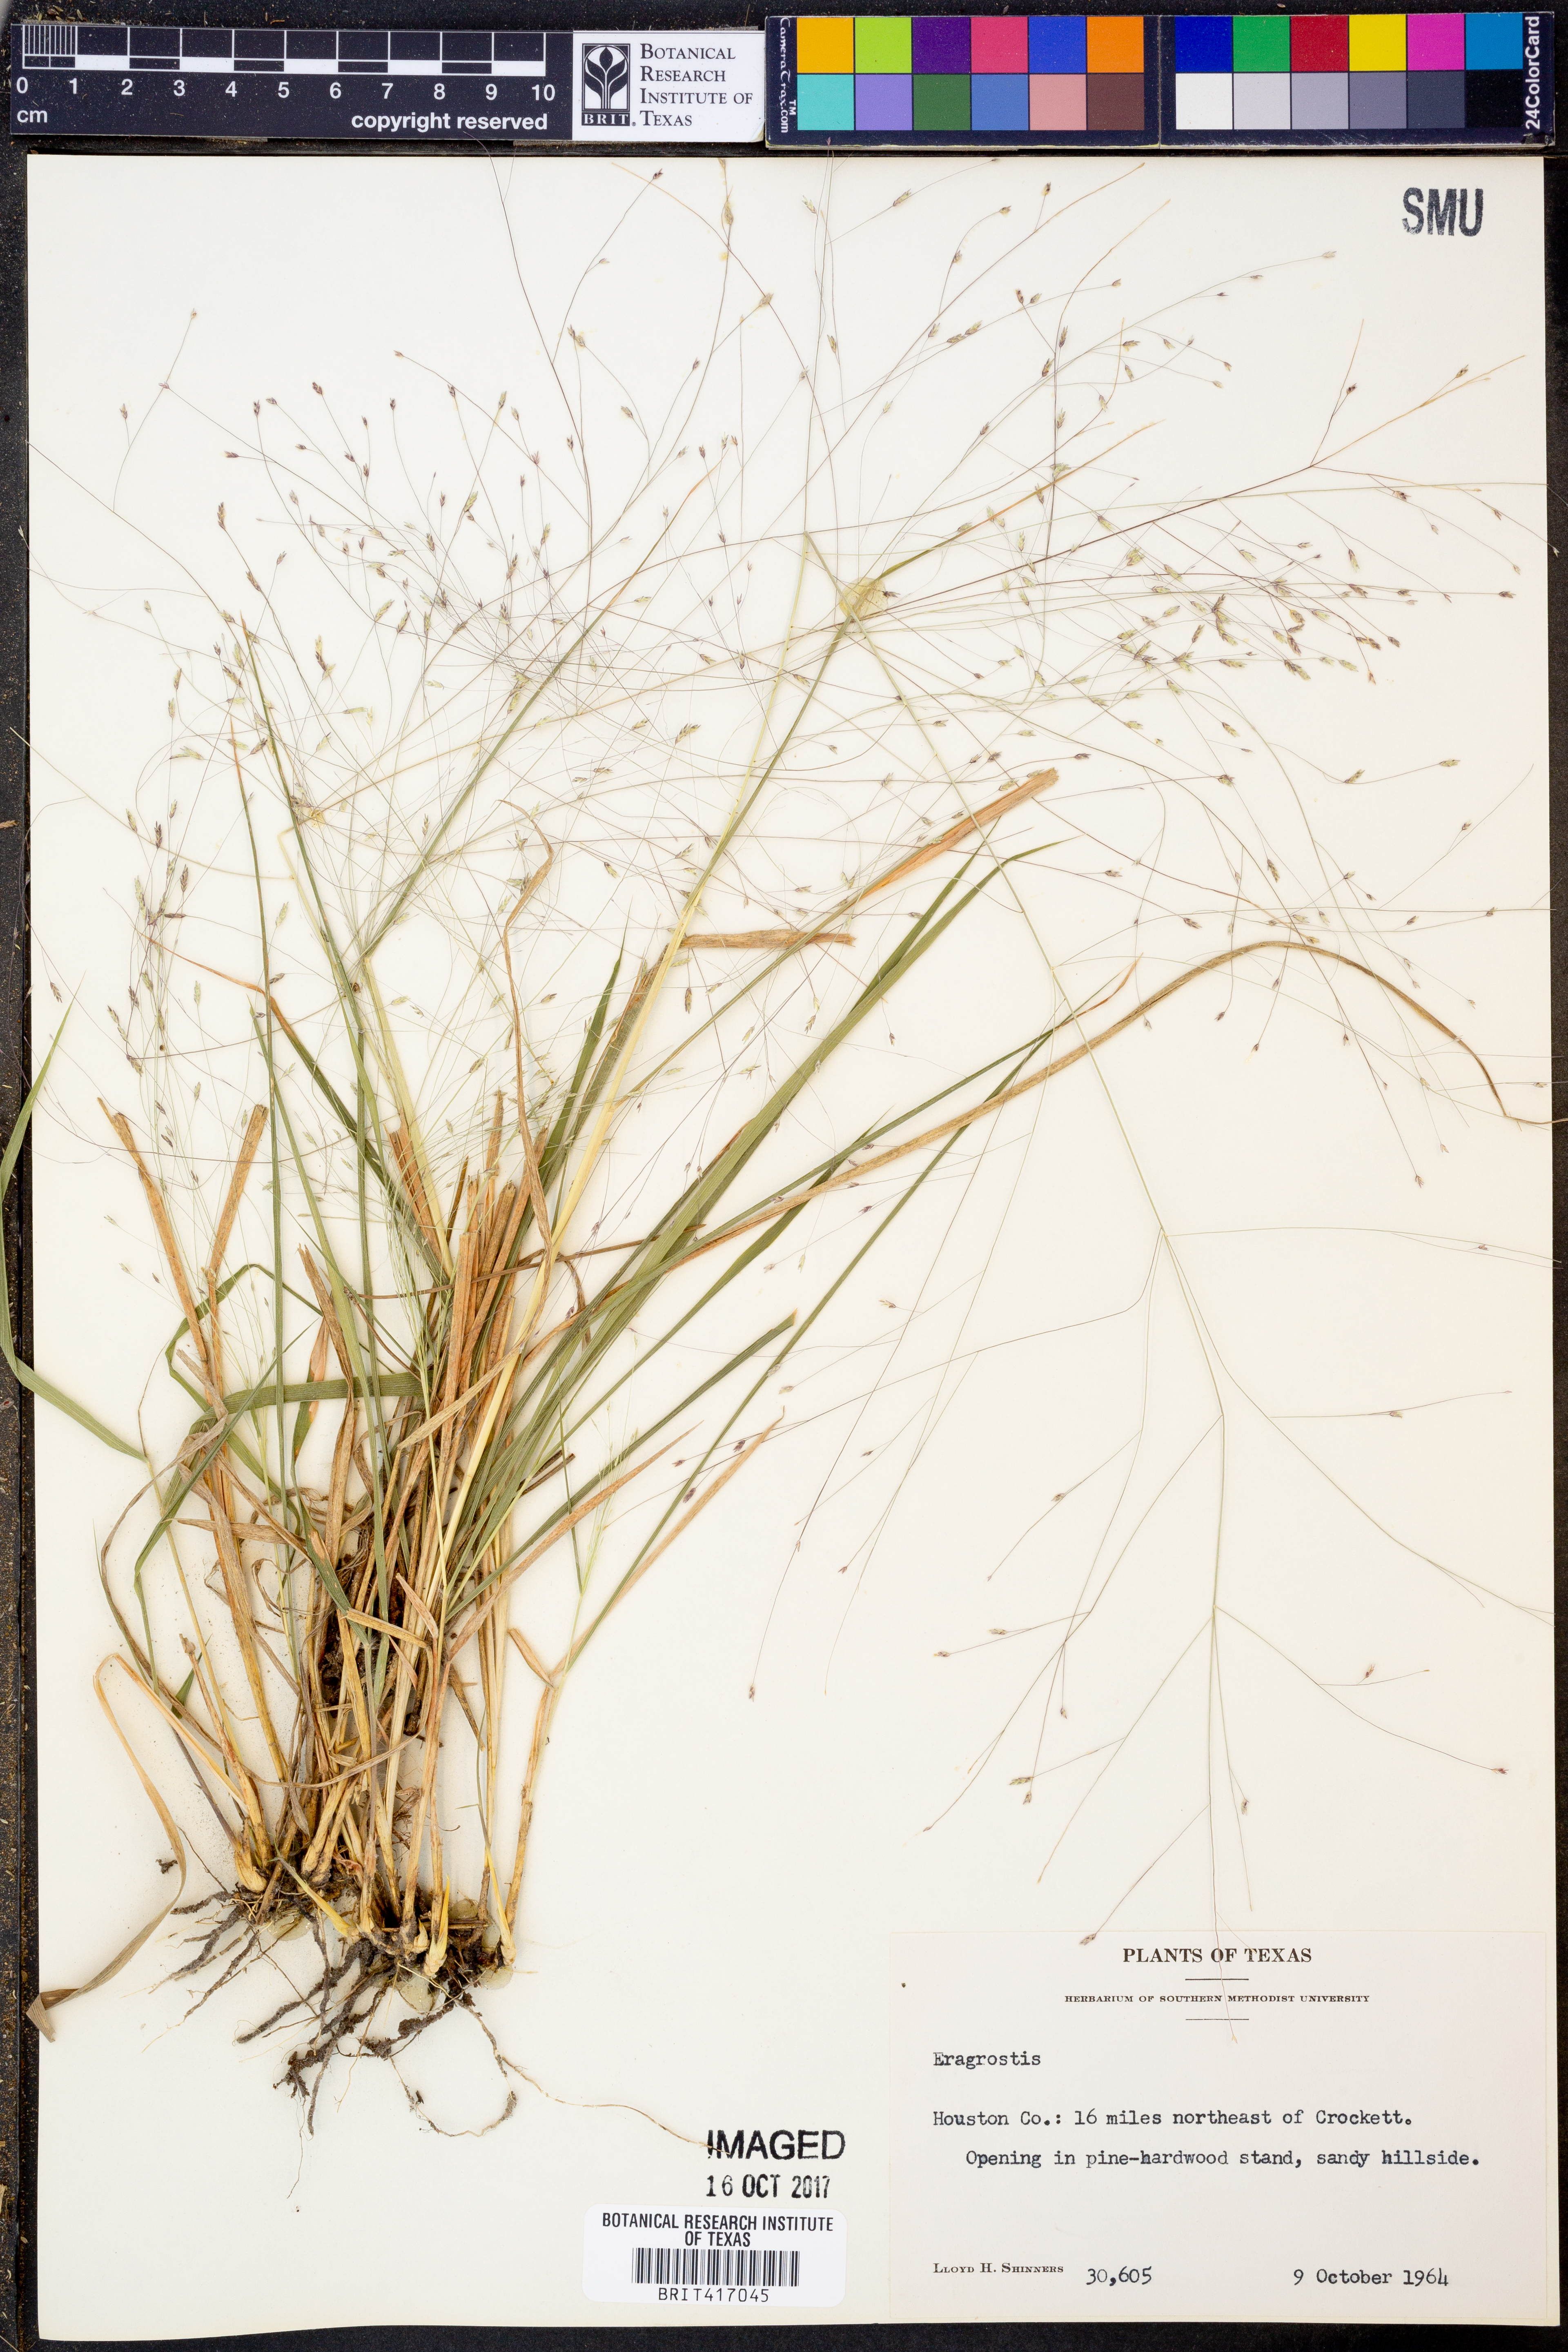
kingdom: Plantae
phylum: Tracheophyta
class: Liliopsida
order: Poales
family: Poaceae
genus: Eragrostis
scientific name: Eragrostis
